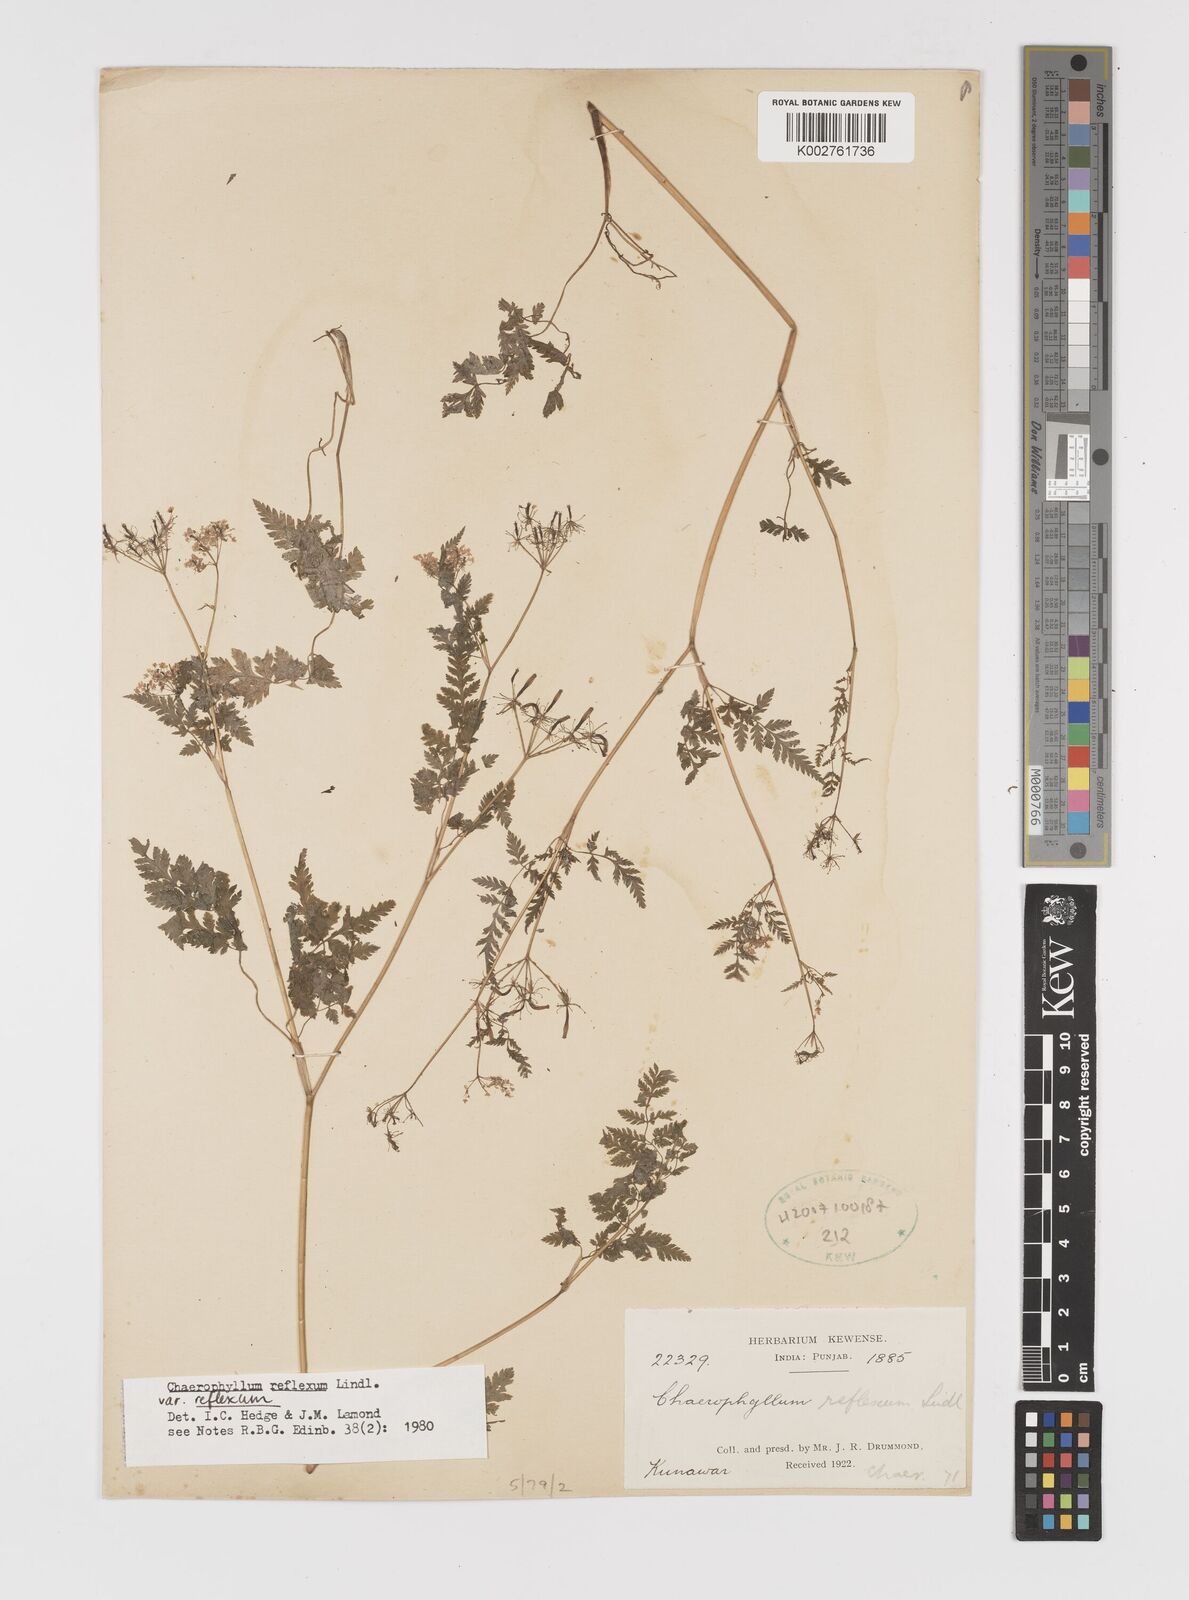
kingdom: Plantae
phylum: Tracheophyta
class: Magnoliopsida
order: Apiales
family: Apiaceae
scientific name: Apiaceae
